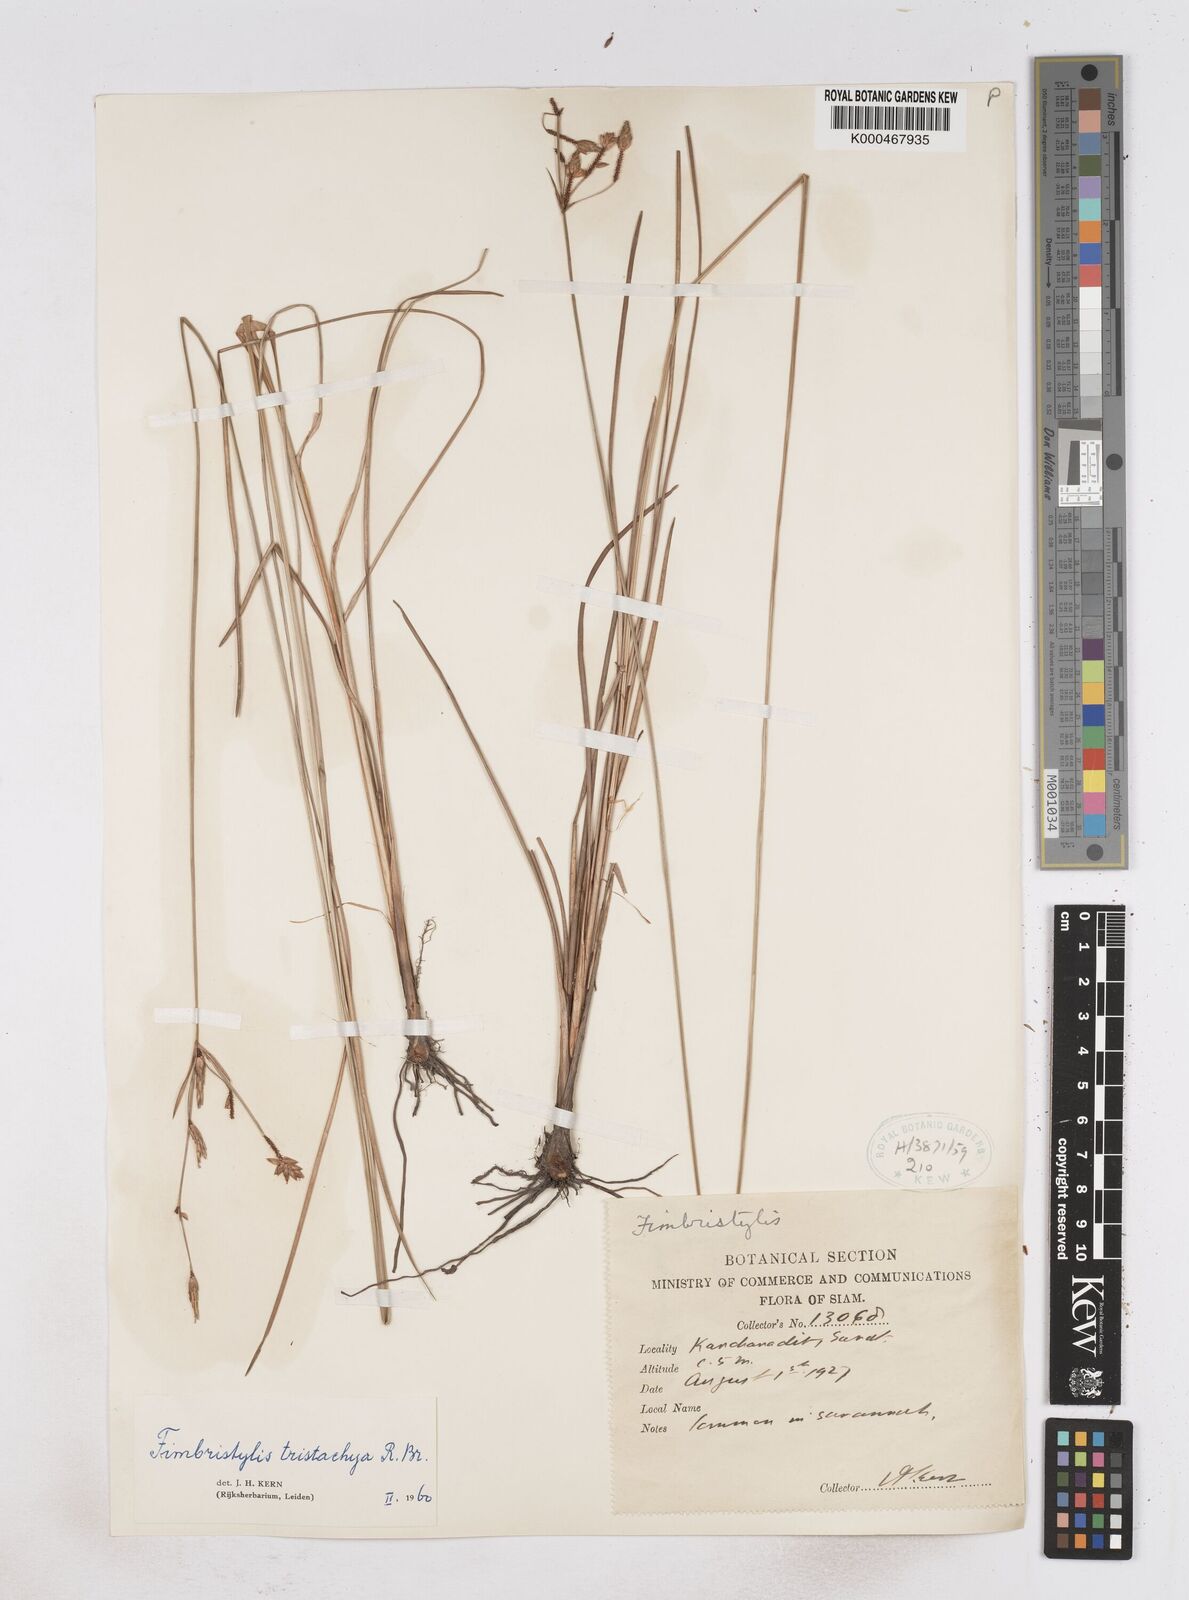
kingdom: Plantae
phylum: Tracheophyta
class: Liliopsida
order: Poales
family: Cyperaceae
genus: Fimbristylis
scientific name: Fimbristylis tristachya
